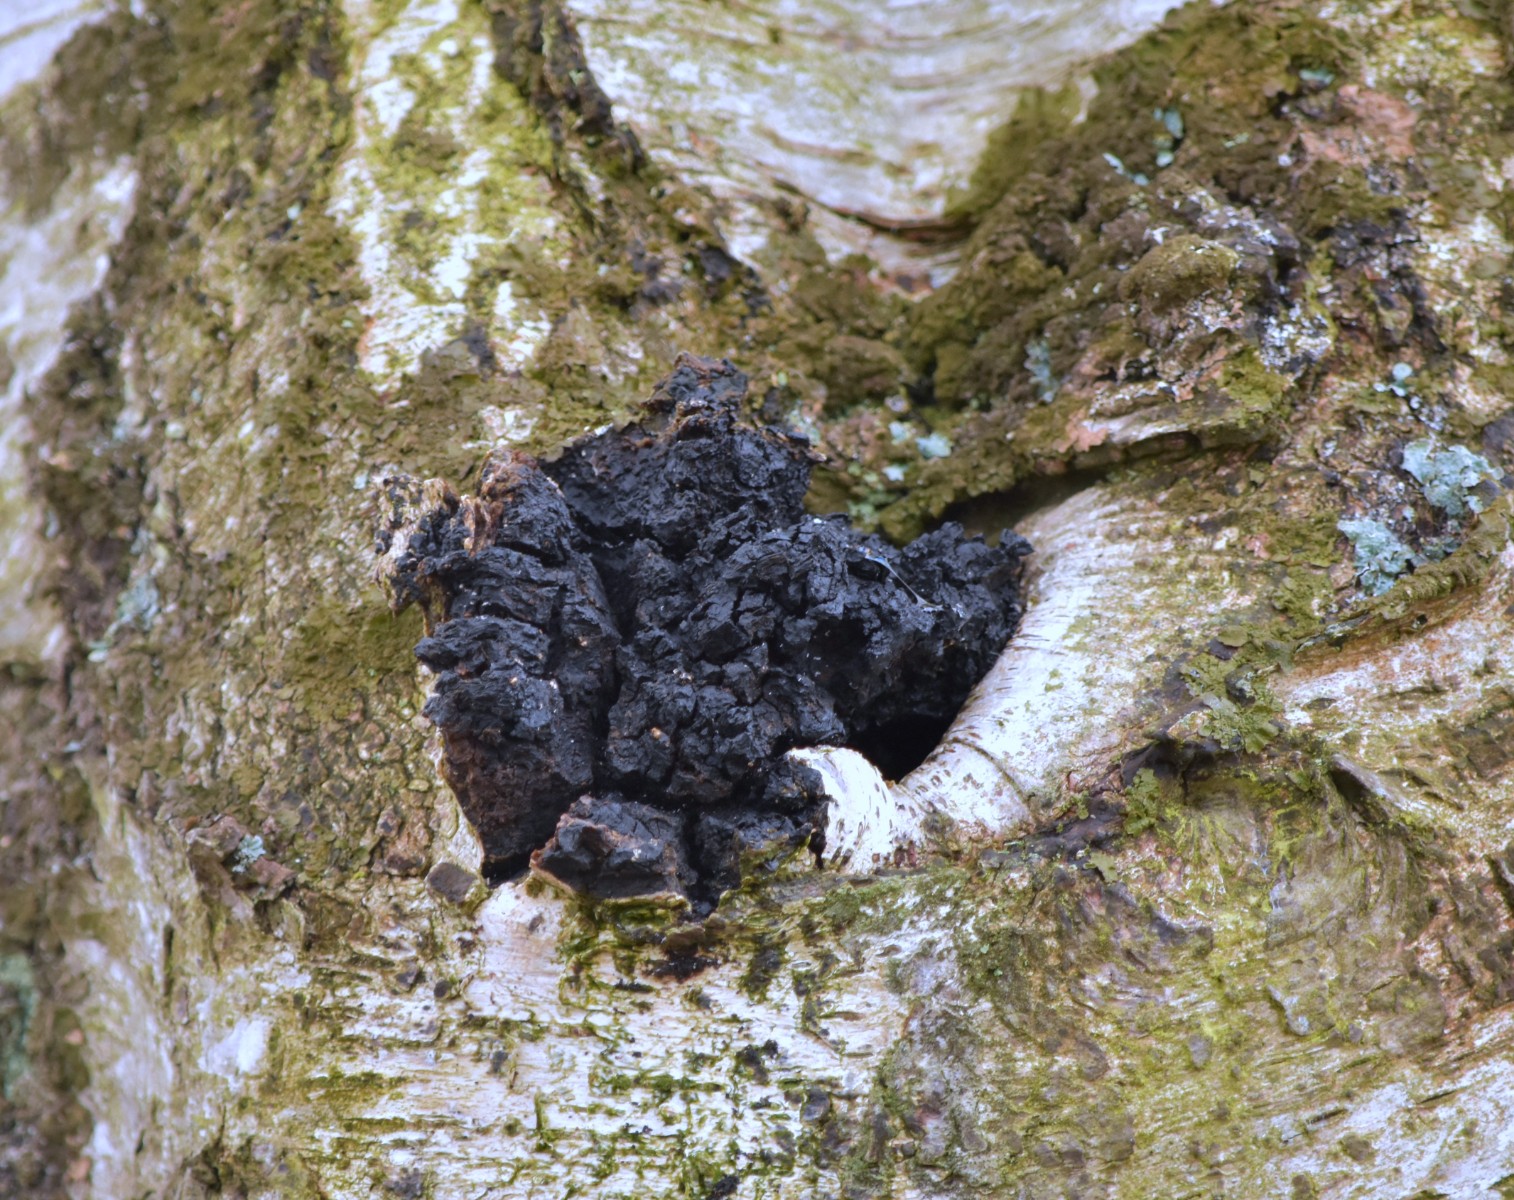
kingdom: Fungi
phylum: Basidiomycota
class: Agaricomycetes
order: Hymenochaetales
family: Hymenochaetaceae
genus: Inonotus
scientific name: Inonotus obliquus
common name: birke-spejlporesvamp
